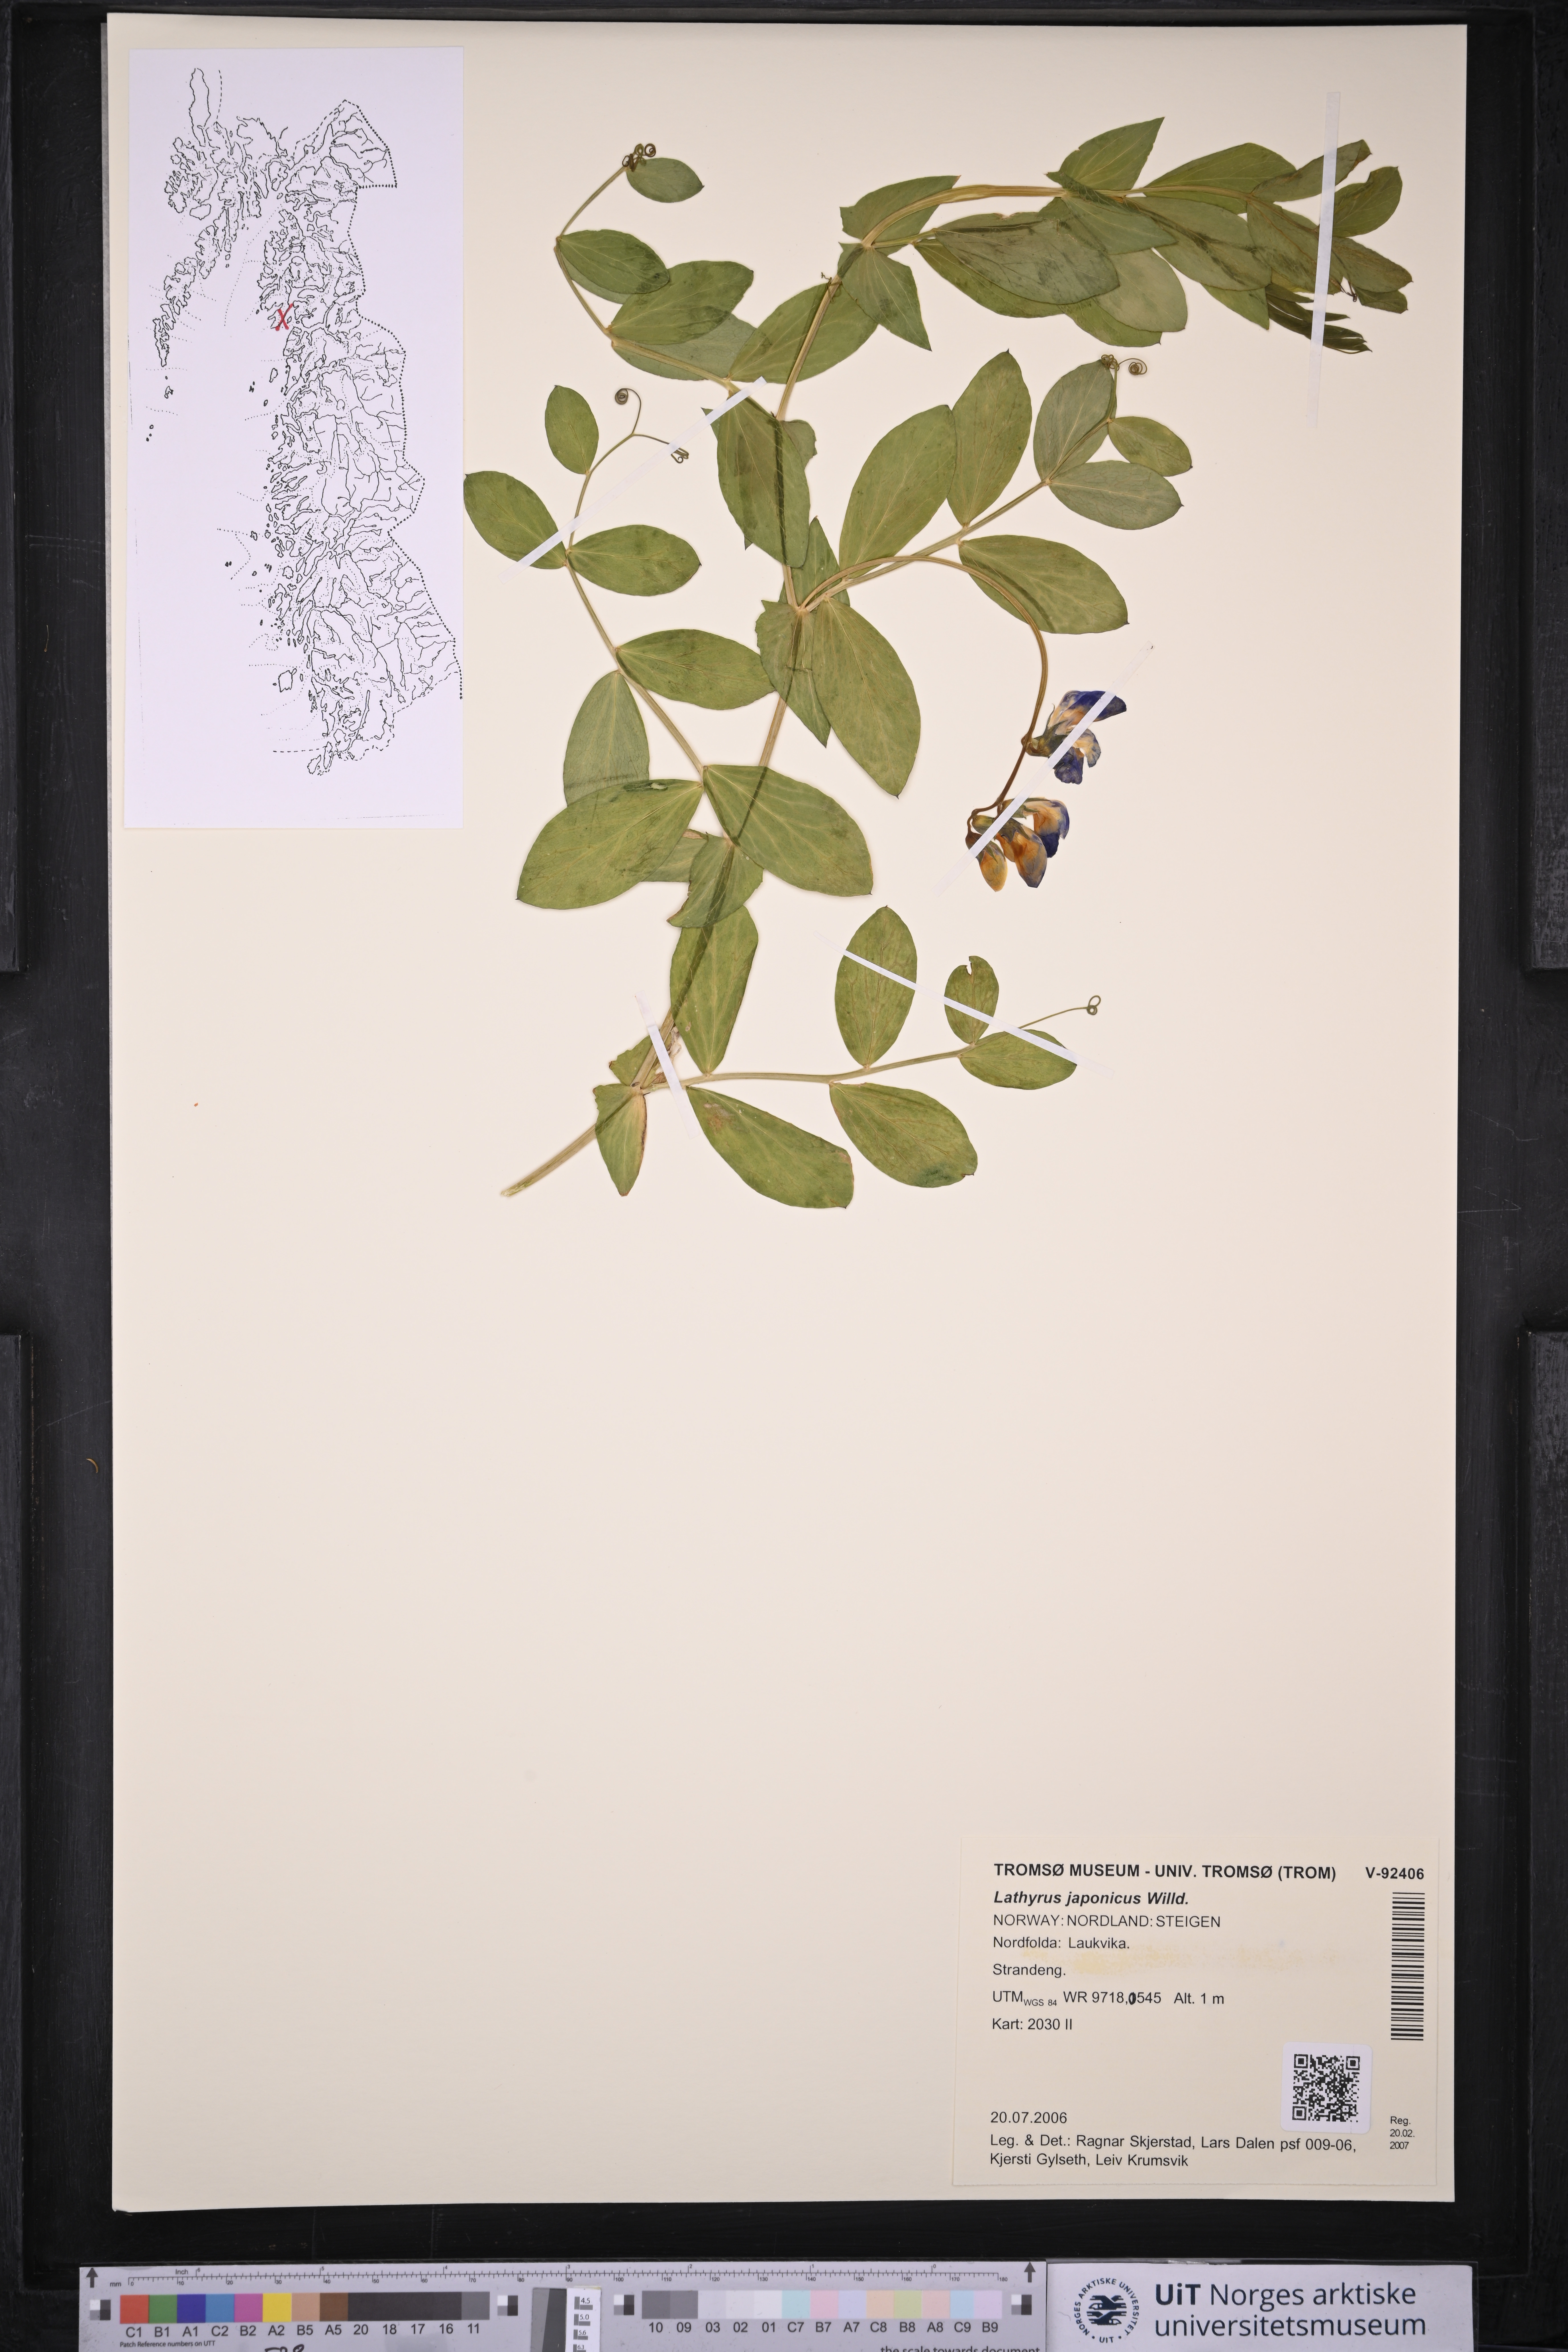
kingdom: Plantae
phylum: Tracheophyta
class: Magnoliopsida
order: Fabales
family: Fabaceae
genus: Lathyrus
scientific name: Lathyrus japonicus
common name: Sea pea
